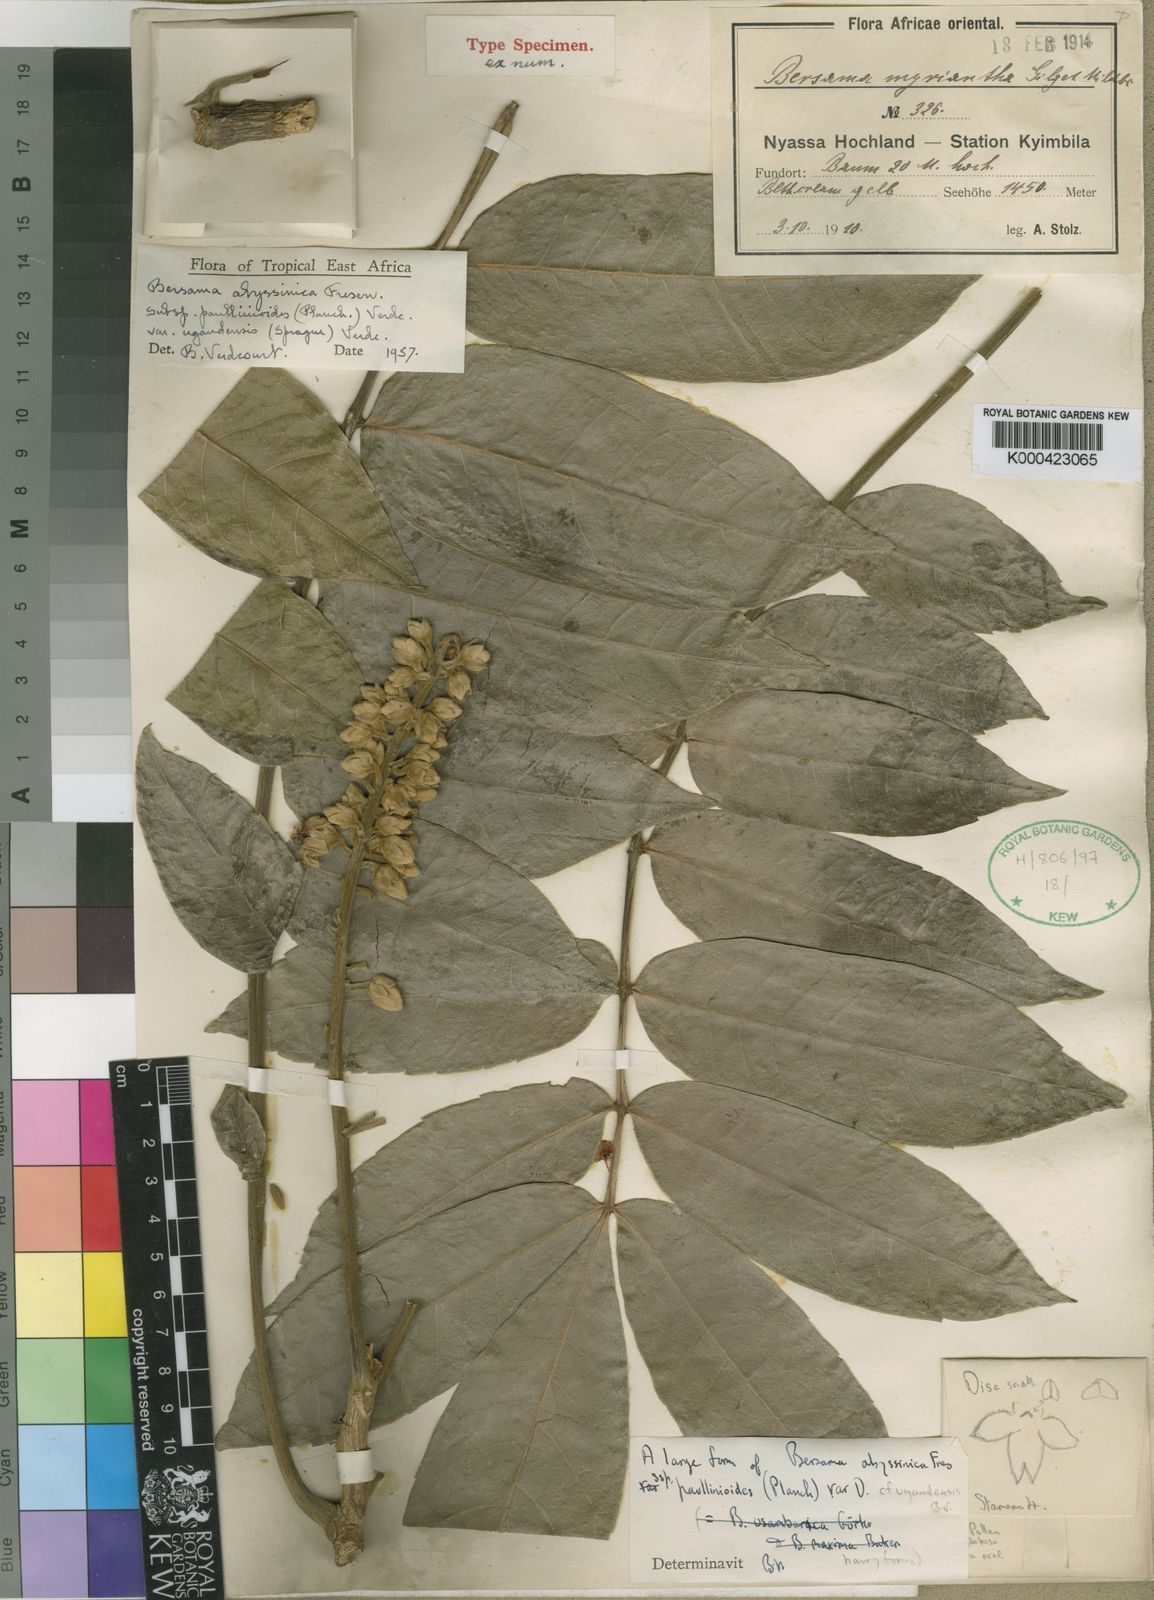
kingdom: Plantae
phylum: Tracheophyta
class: Magnoliopsida
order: Geraniales
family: Melianthaceae
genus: Bersama
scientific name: Bersama abyssinica
